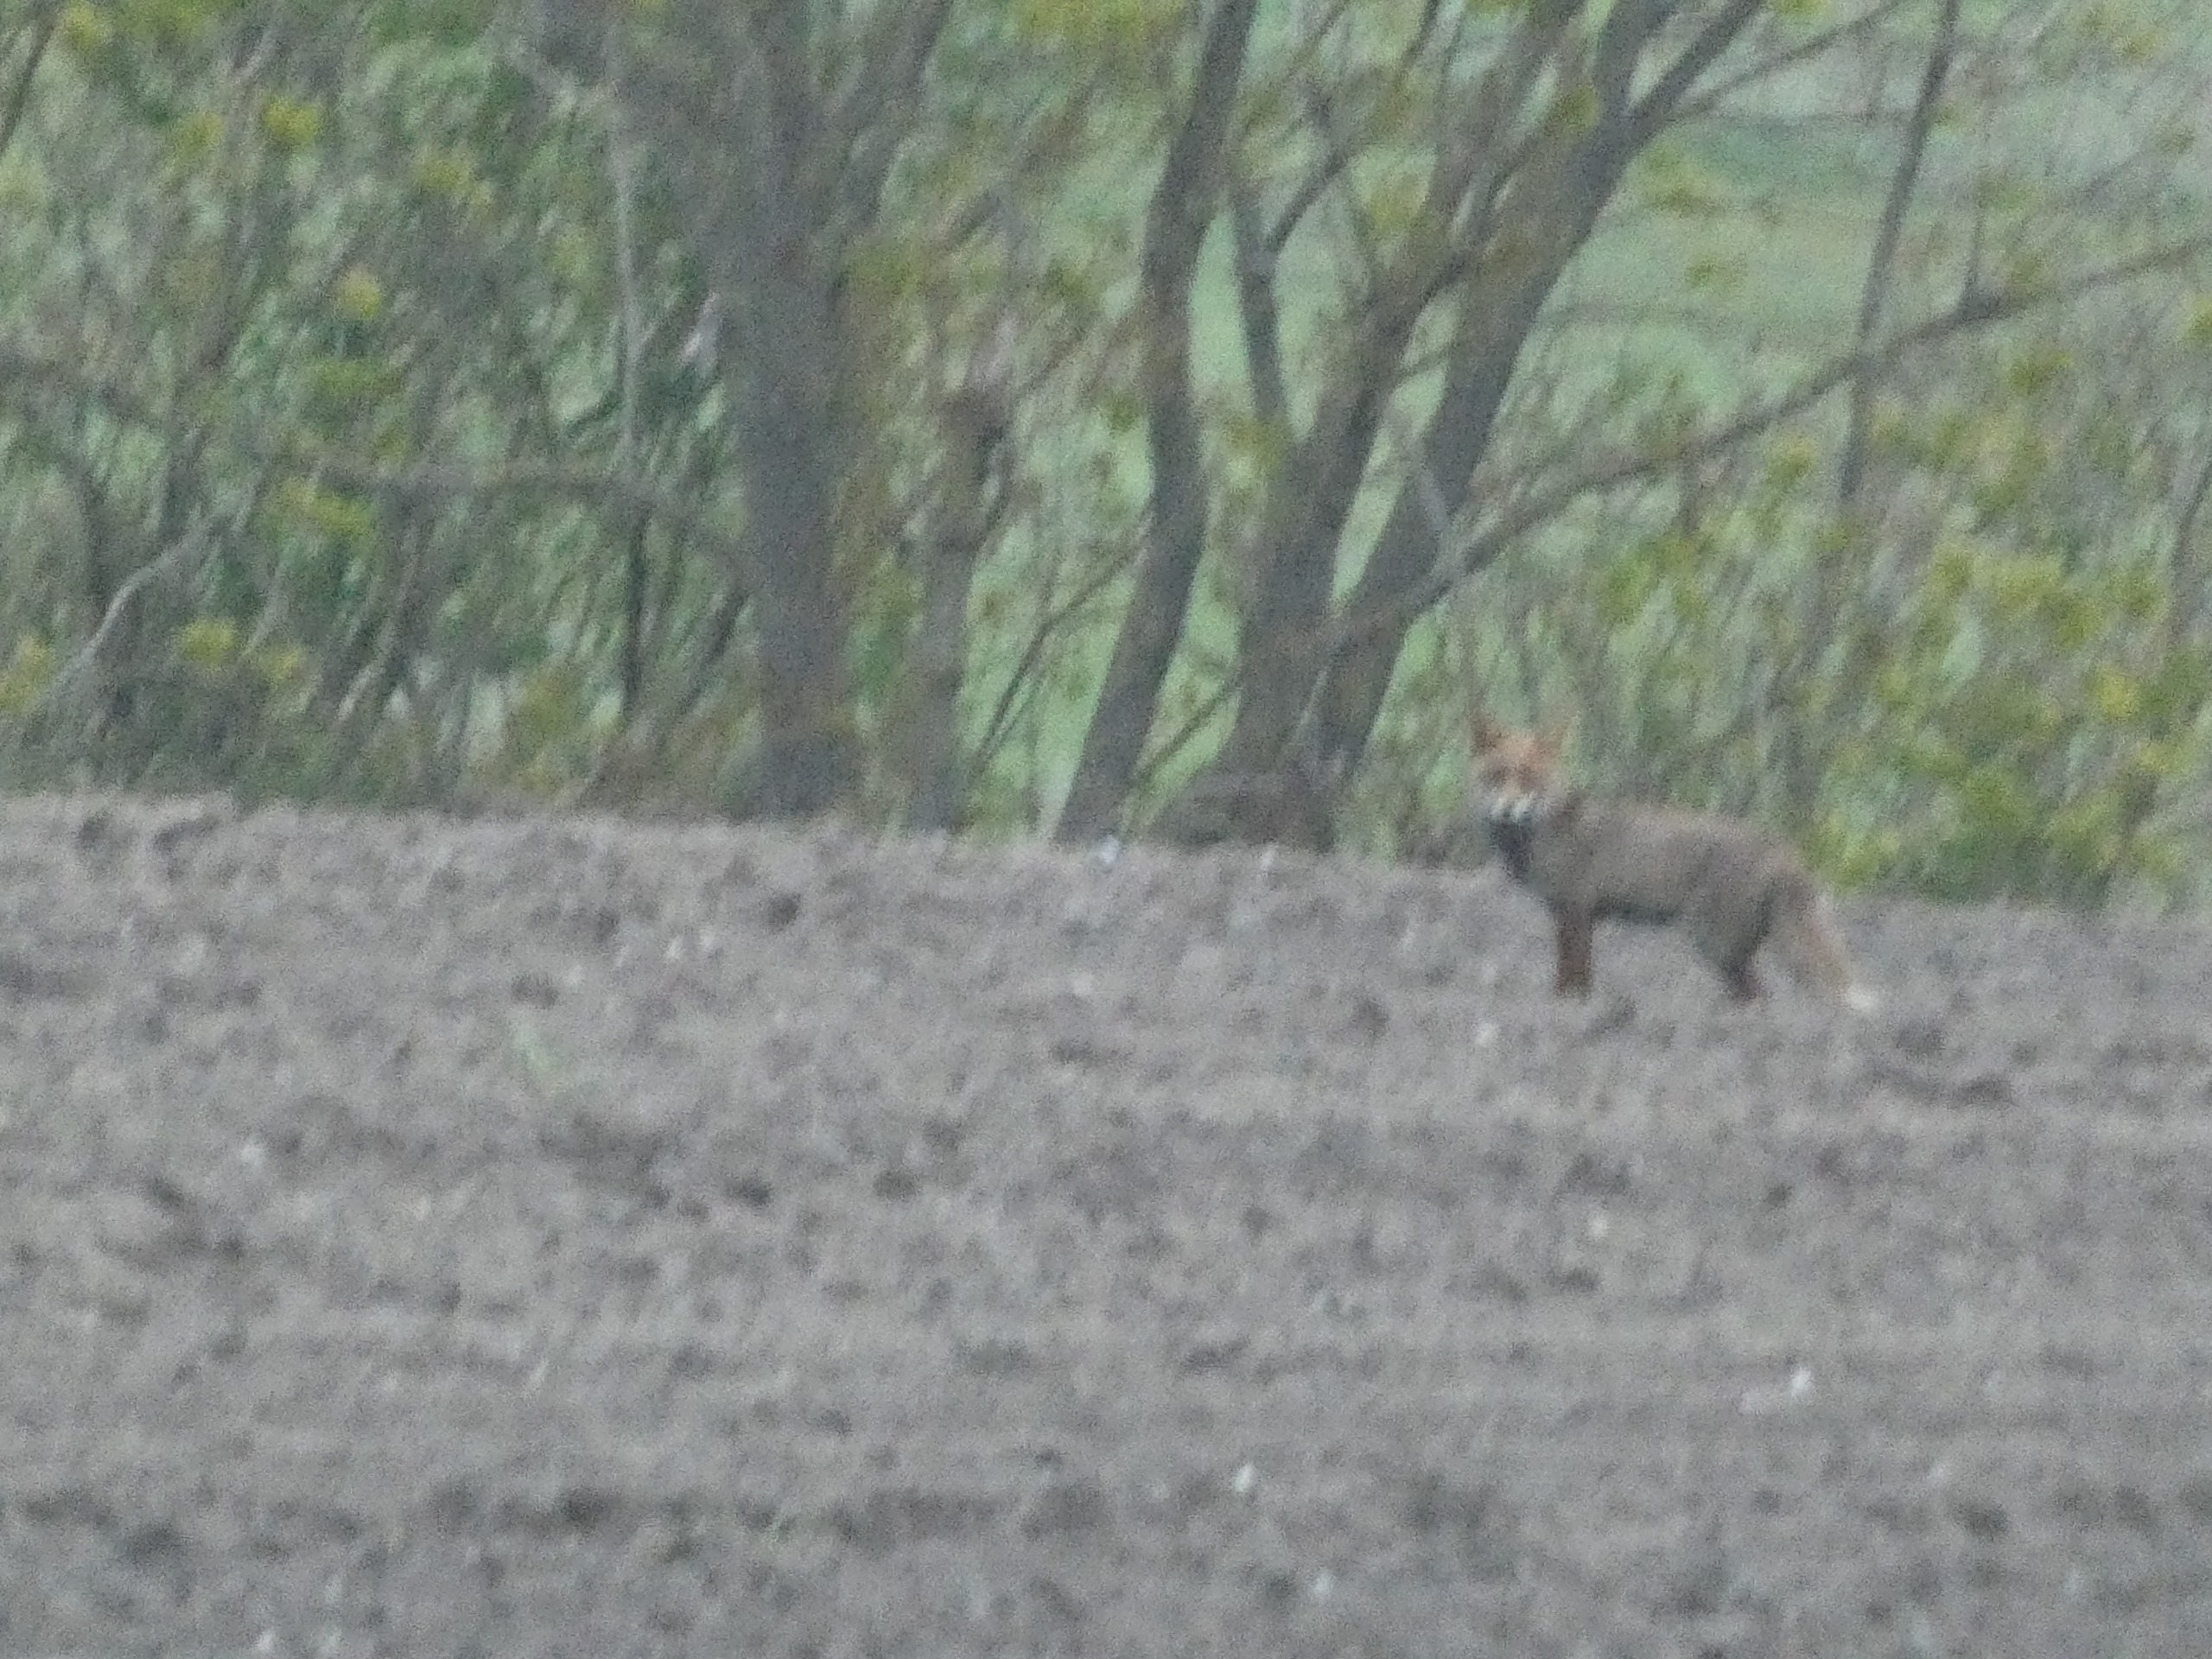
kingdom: Animalia
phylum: Chordata
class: Mammalia
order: Carnivora
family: Canidae
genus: Vulpes
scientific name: Vulpes vulpes
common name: Ræv
